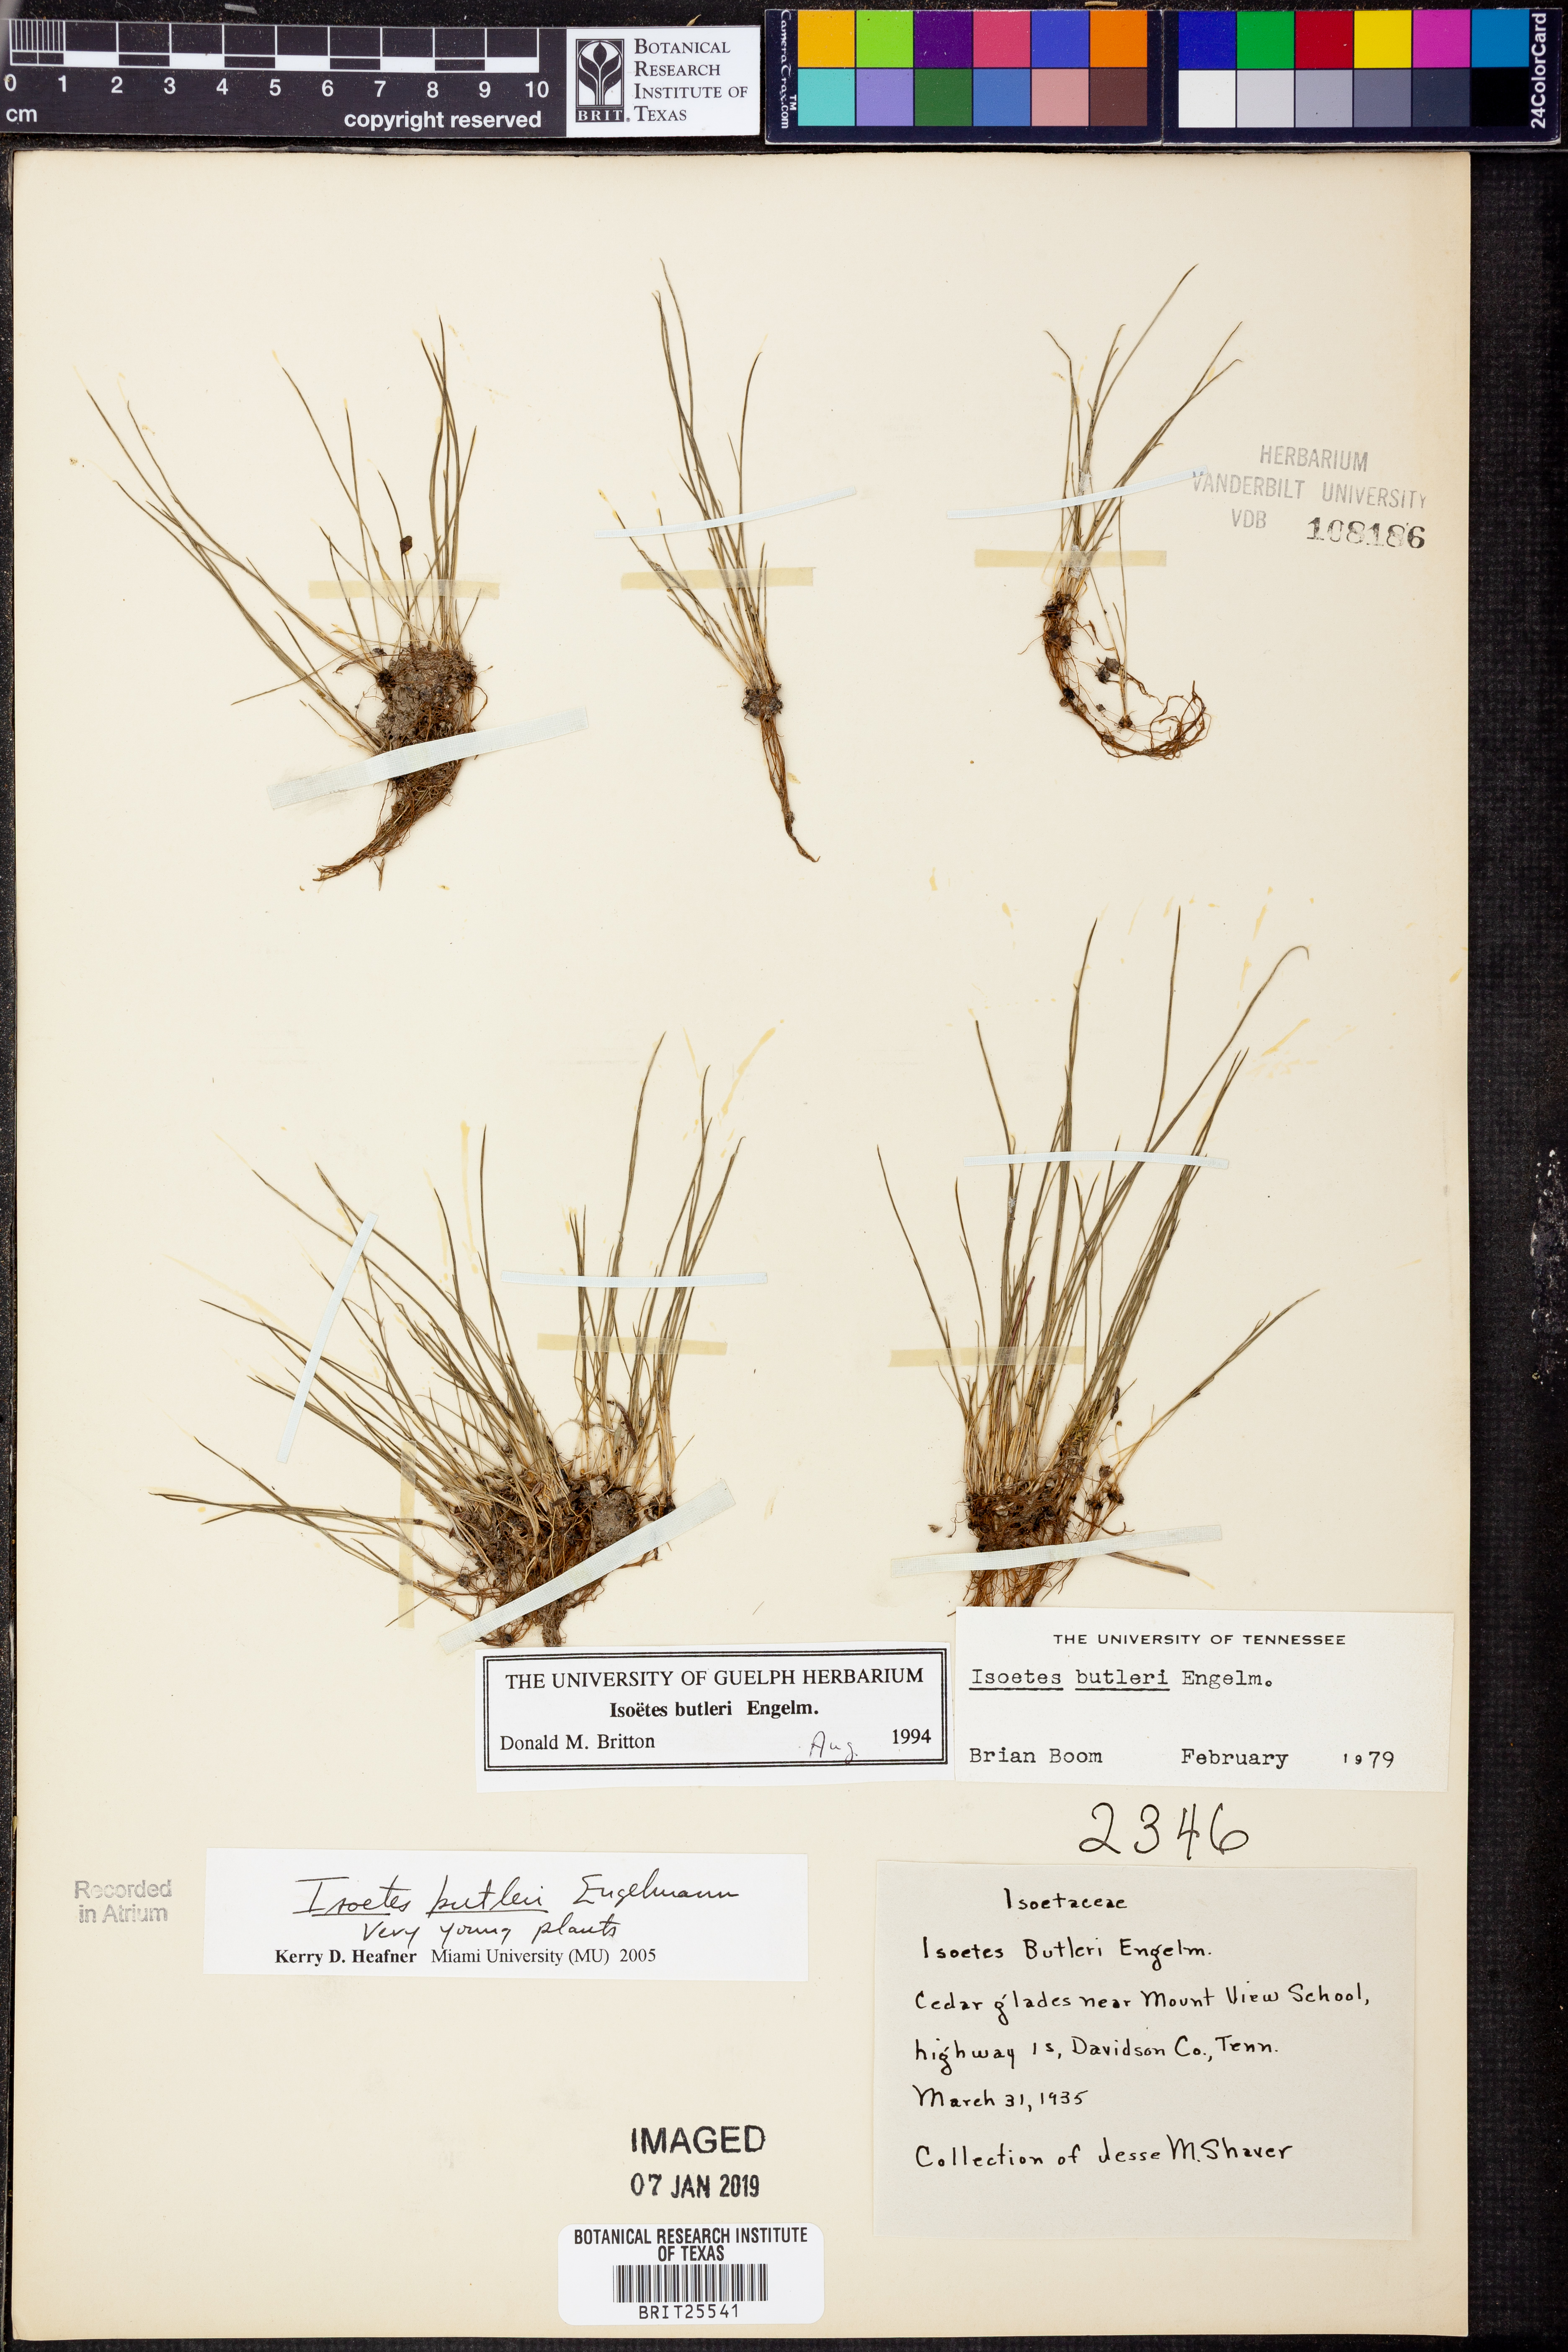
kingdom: Plantae
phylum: Tracheophyta
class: Lycopodiopsida
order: Isoetales
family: Isoetaceae
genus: Isoetes
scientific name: Isoetes butleri
